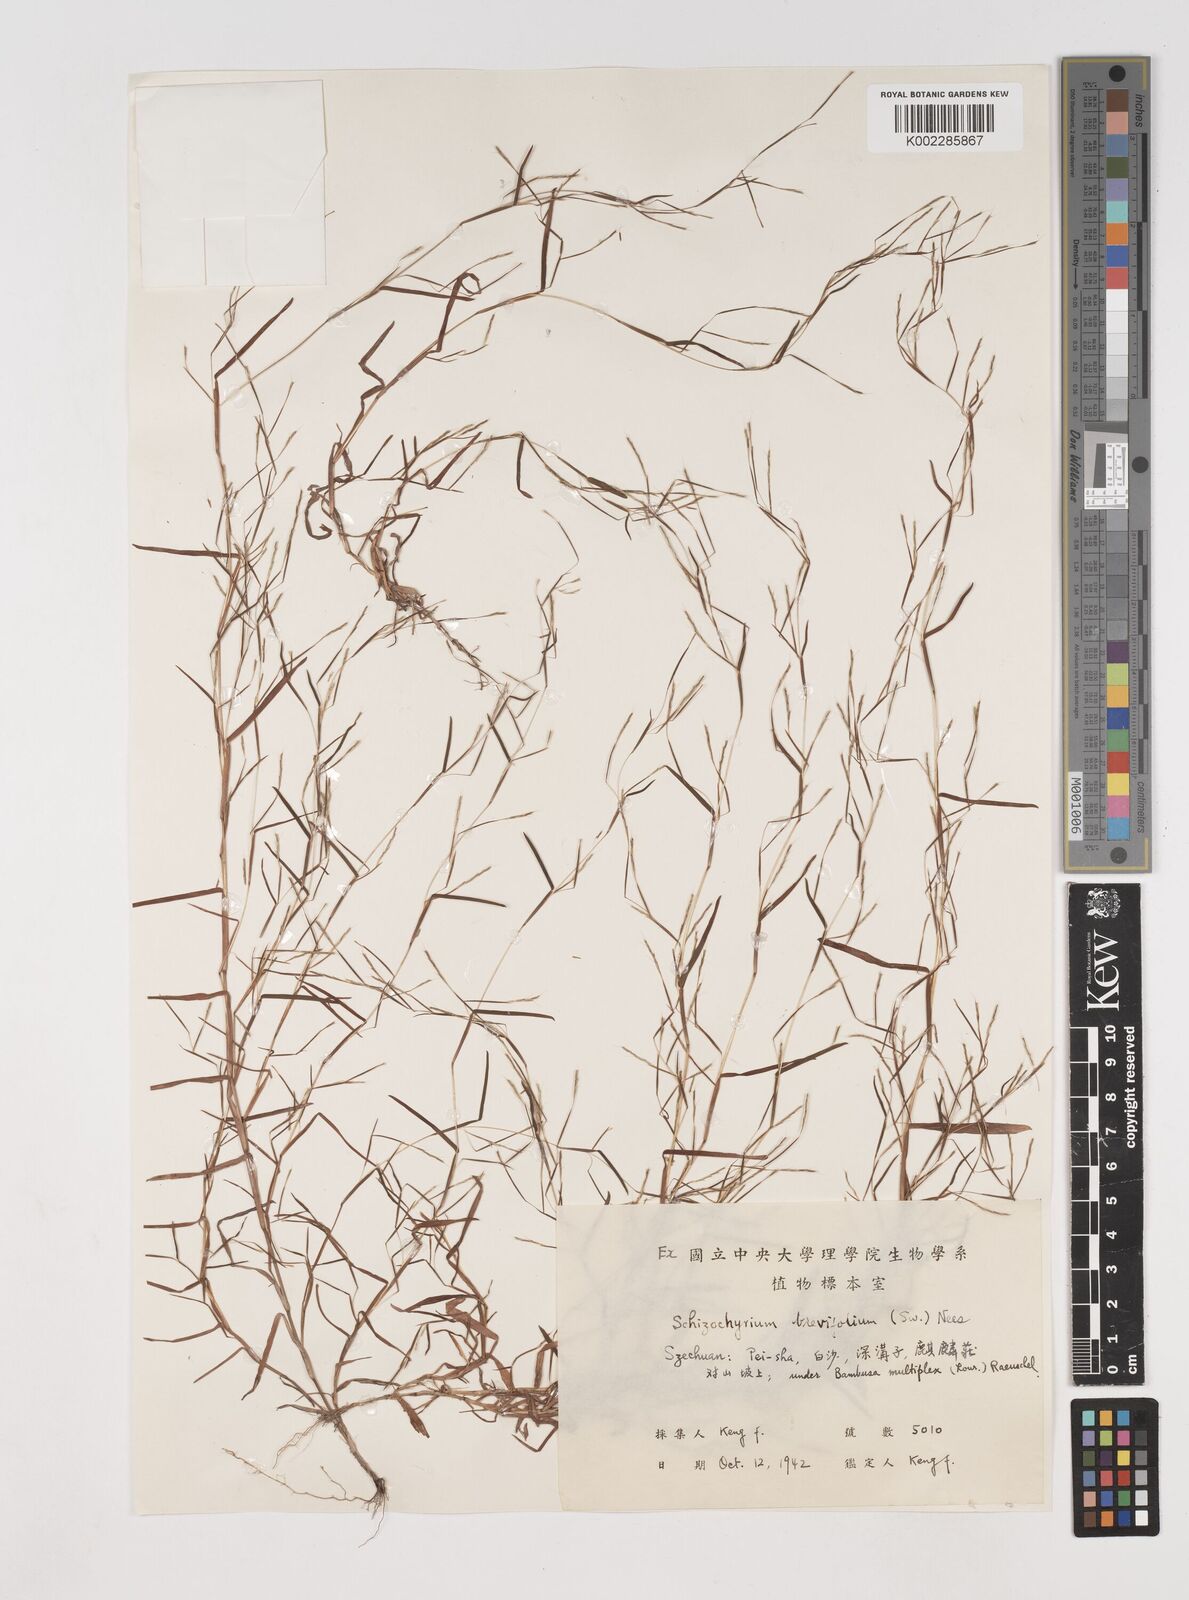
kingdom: Plantae
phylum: Tracheophyta
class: Liliopsida
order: Poales
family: Poaceae
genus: Schizachyrium
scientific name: Schizachyrium brevifolium
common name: Serillo dulce
